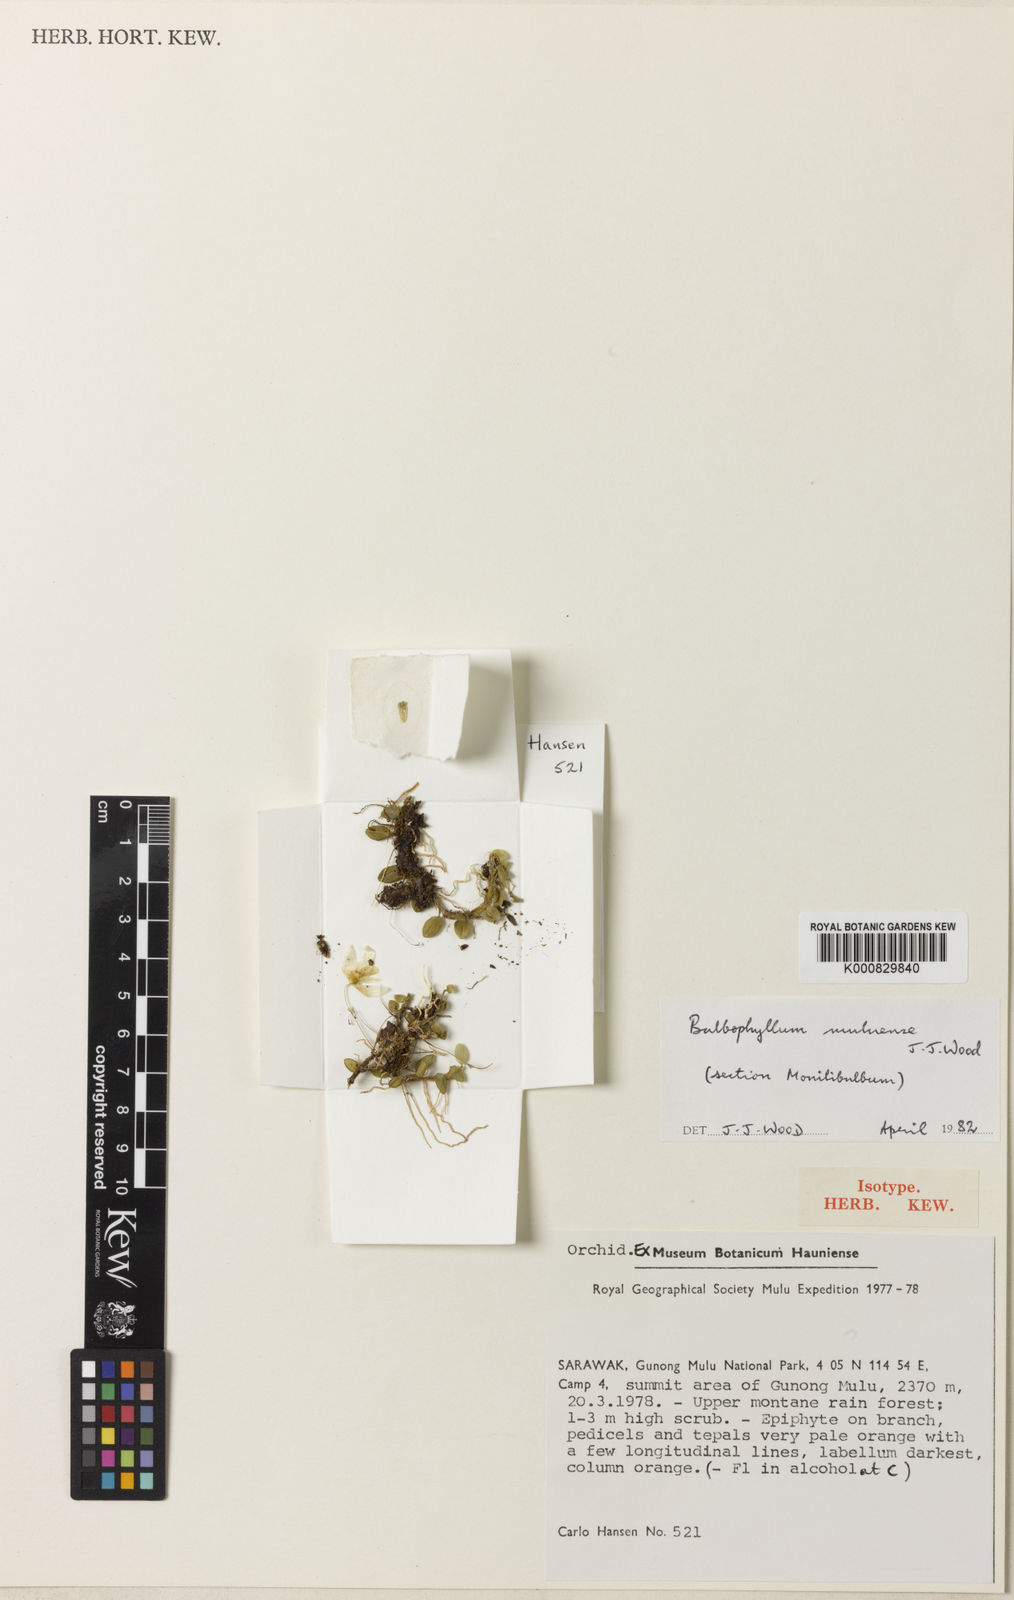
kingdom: Plantae
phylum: Tracheophyta
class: Liliopsida
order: Asparagales
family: Orchidaceae
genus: Bulbophyllum
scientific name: Bulbophyllum muluense
